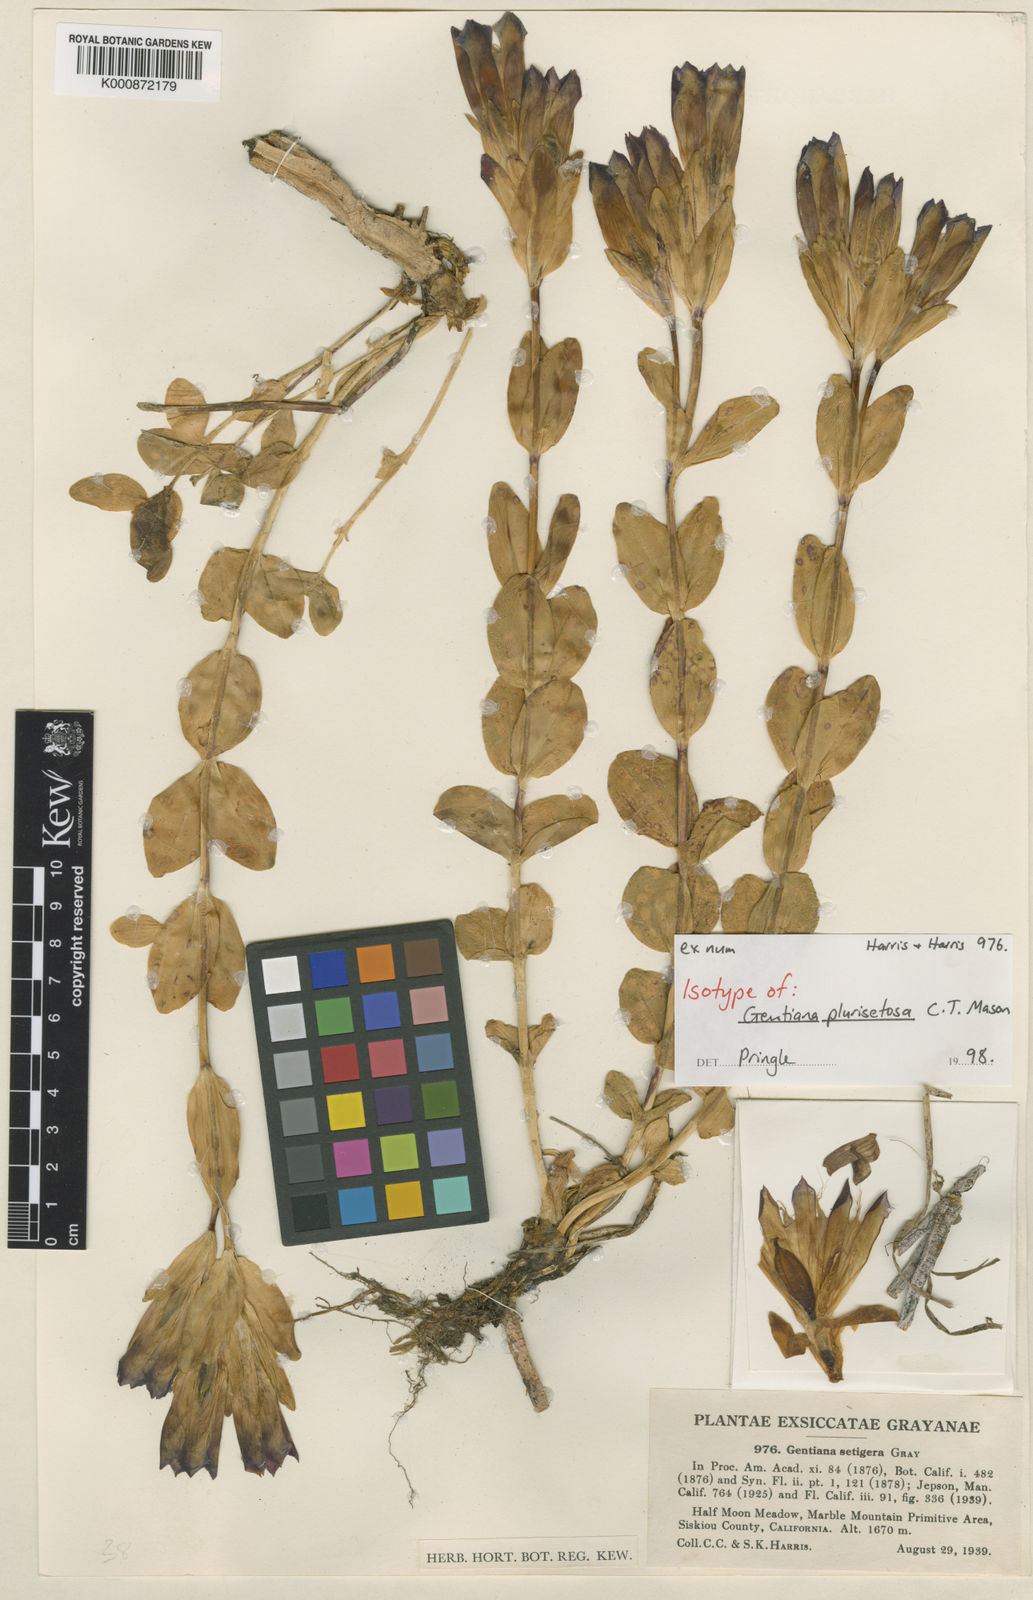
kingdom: Plantae
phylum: Tracheophyta
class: Magnoliopsida
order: Gentianales
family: Gentianaceae
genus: Gentiana
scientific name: Gentiana plurisetosa
